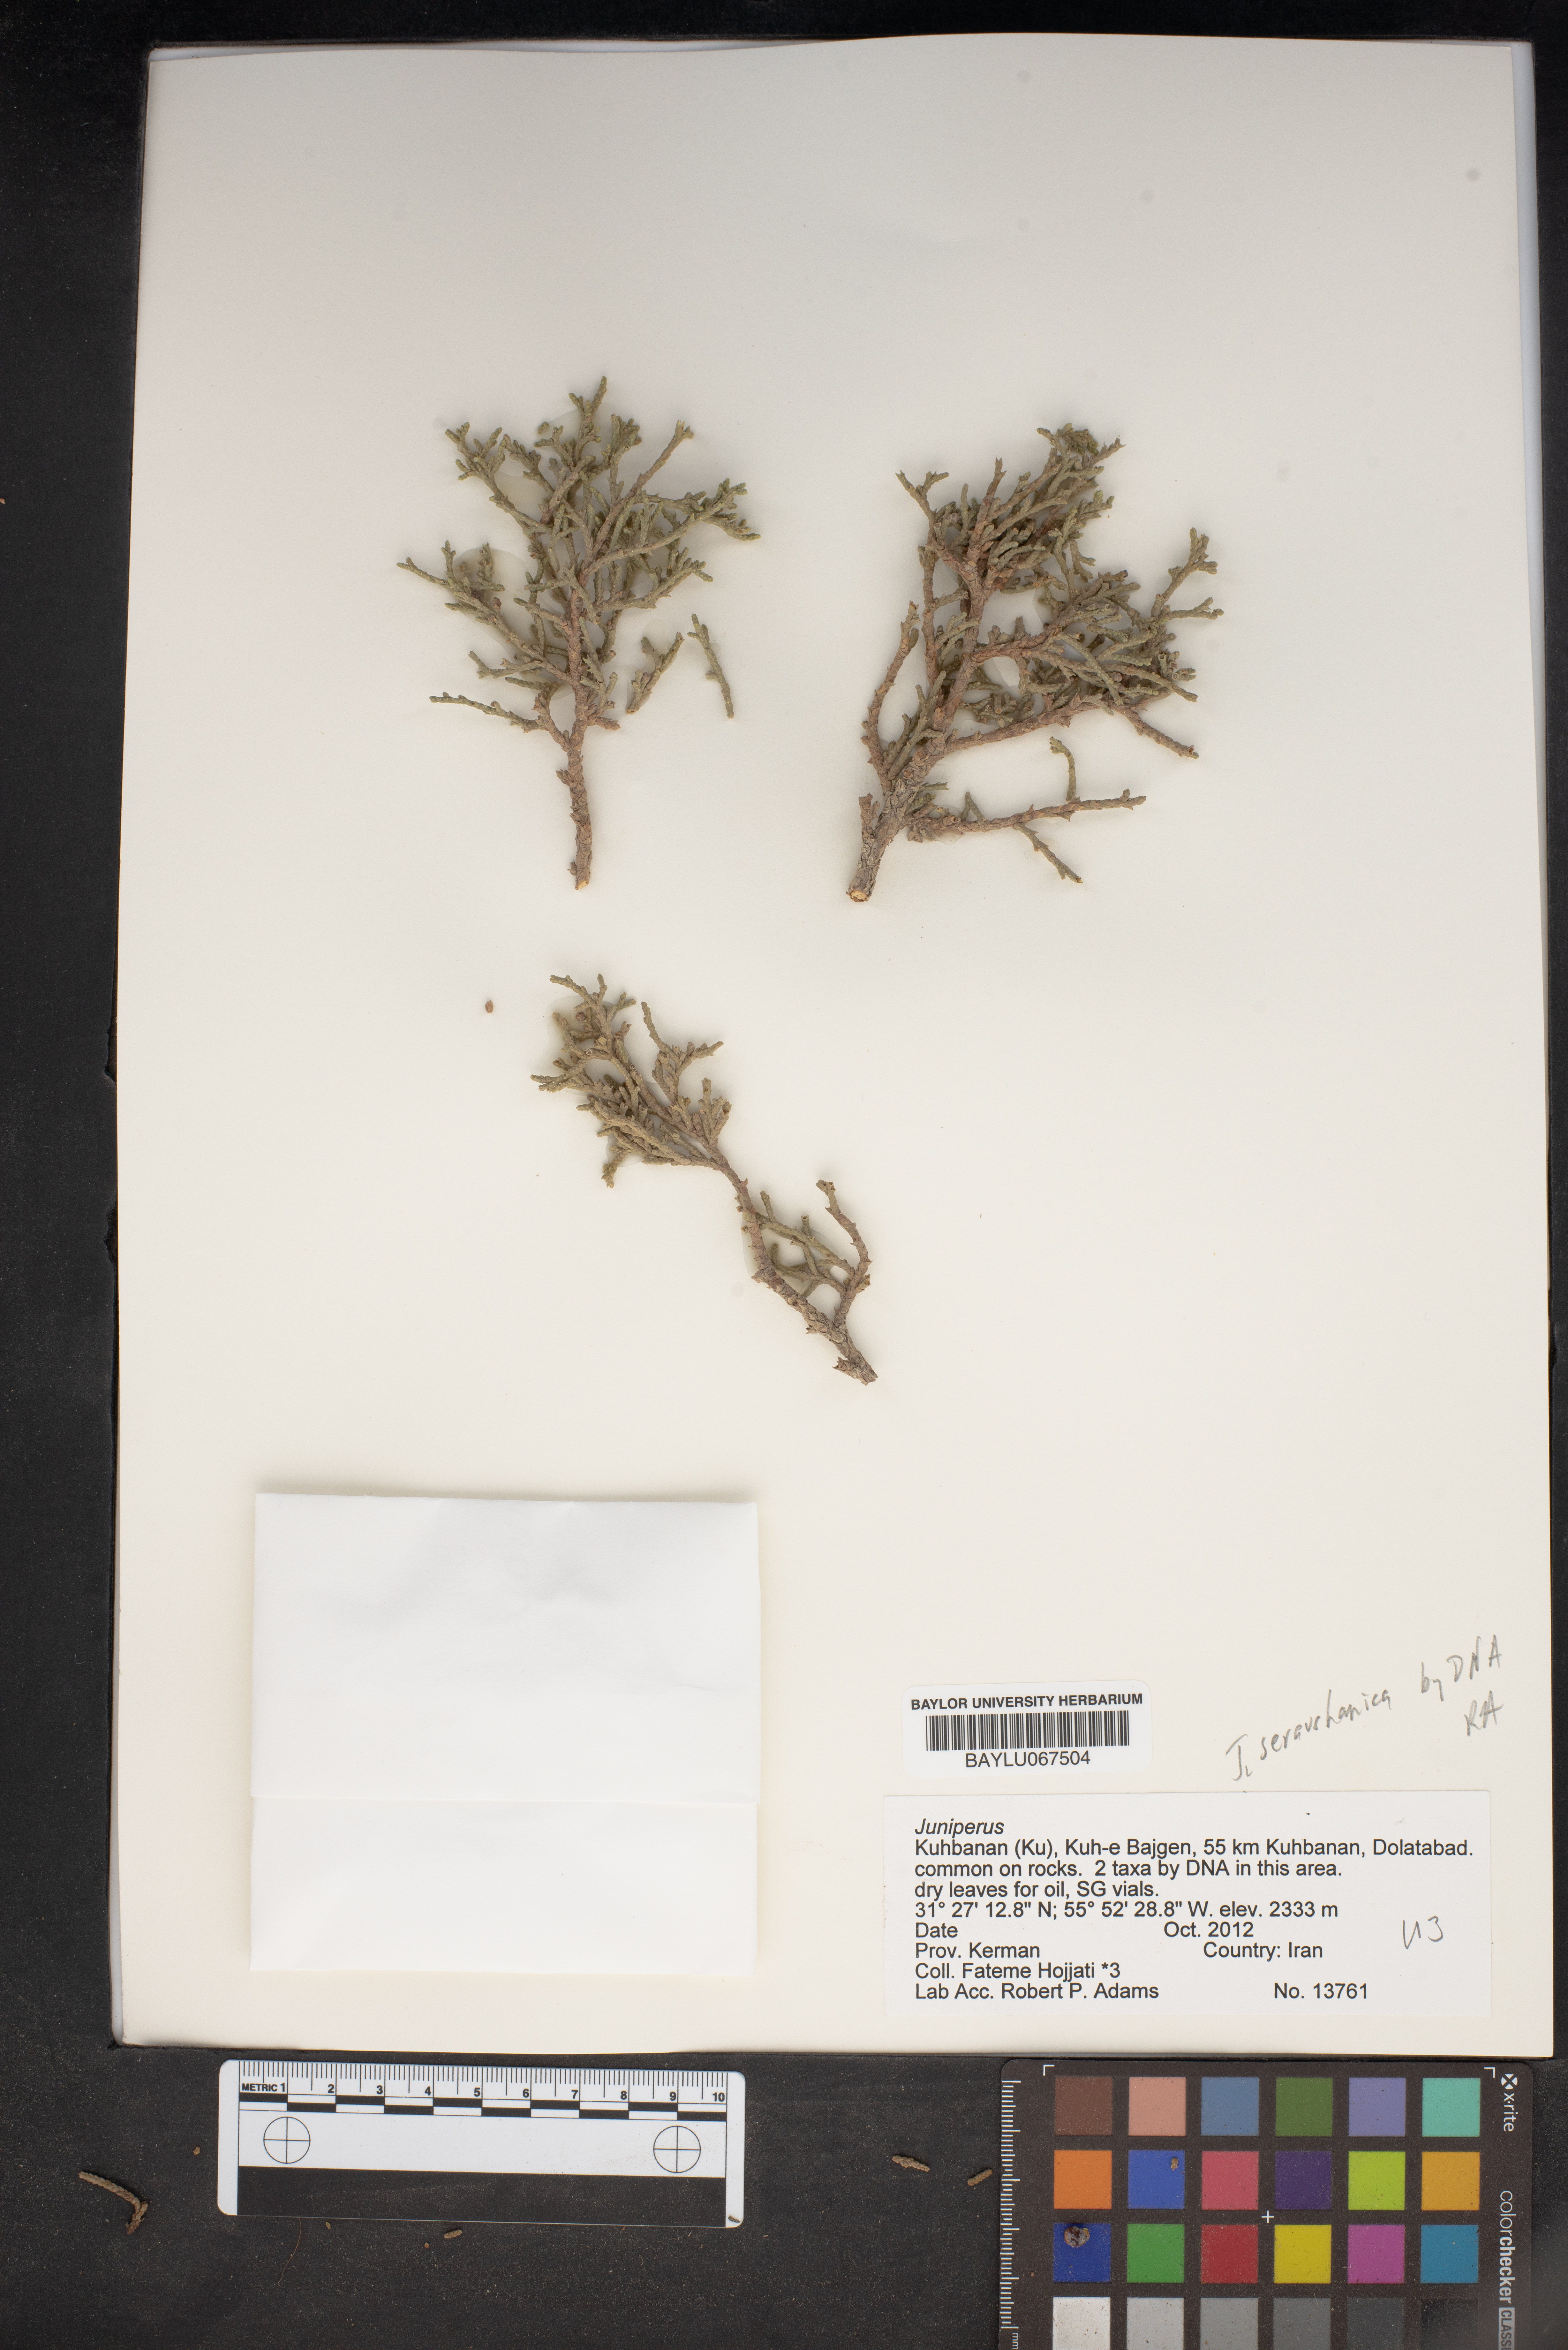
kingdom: Plantae
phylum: Tracheophyta
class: Pinopsida
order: Pinales
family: Cupressaceae
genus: Juniperus
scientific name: Juniperus
